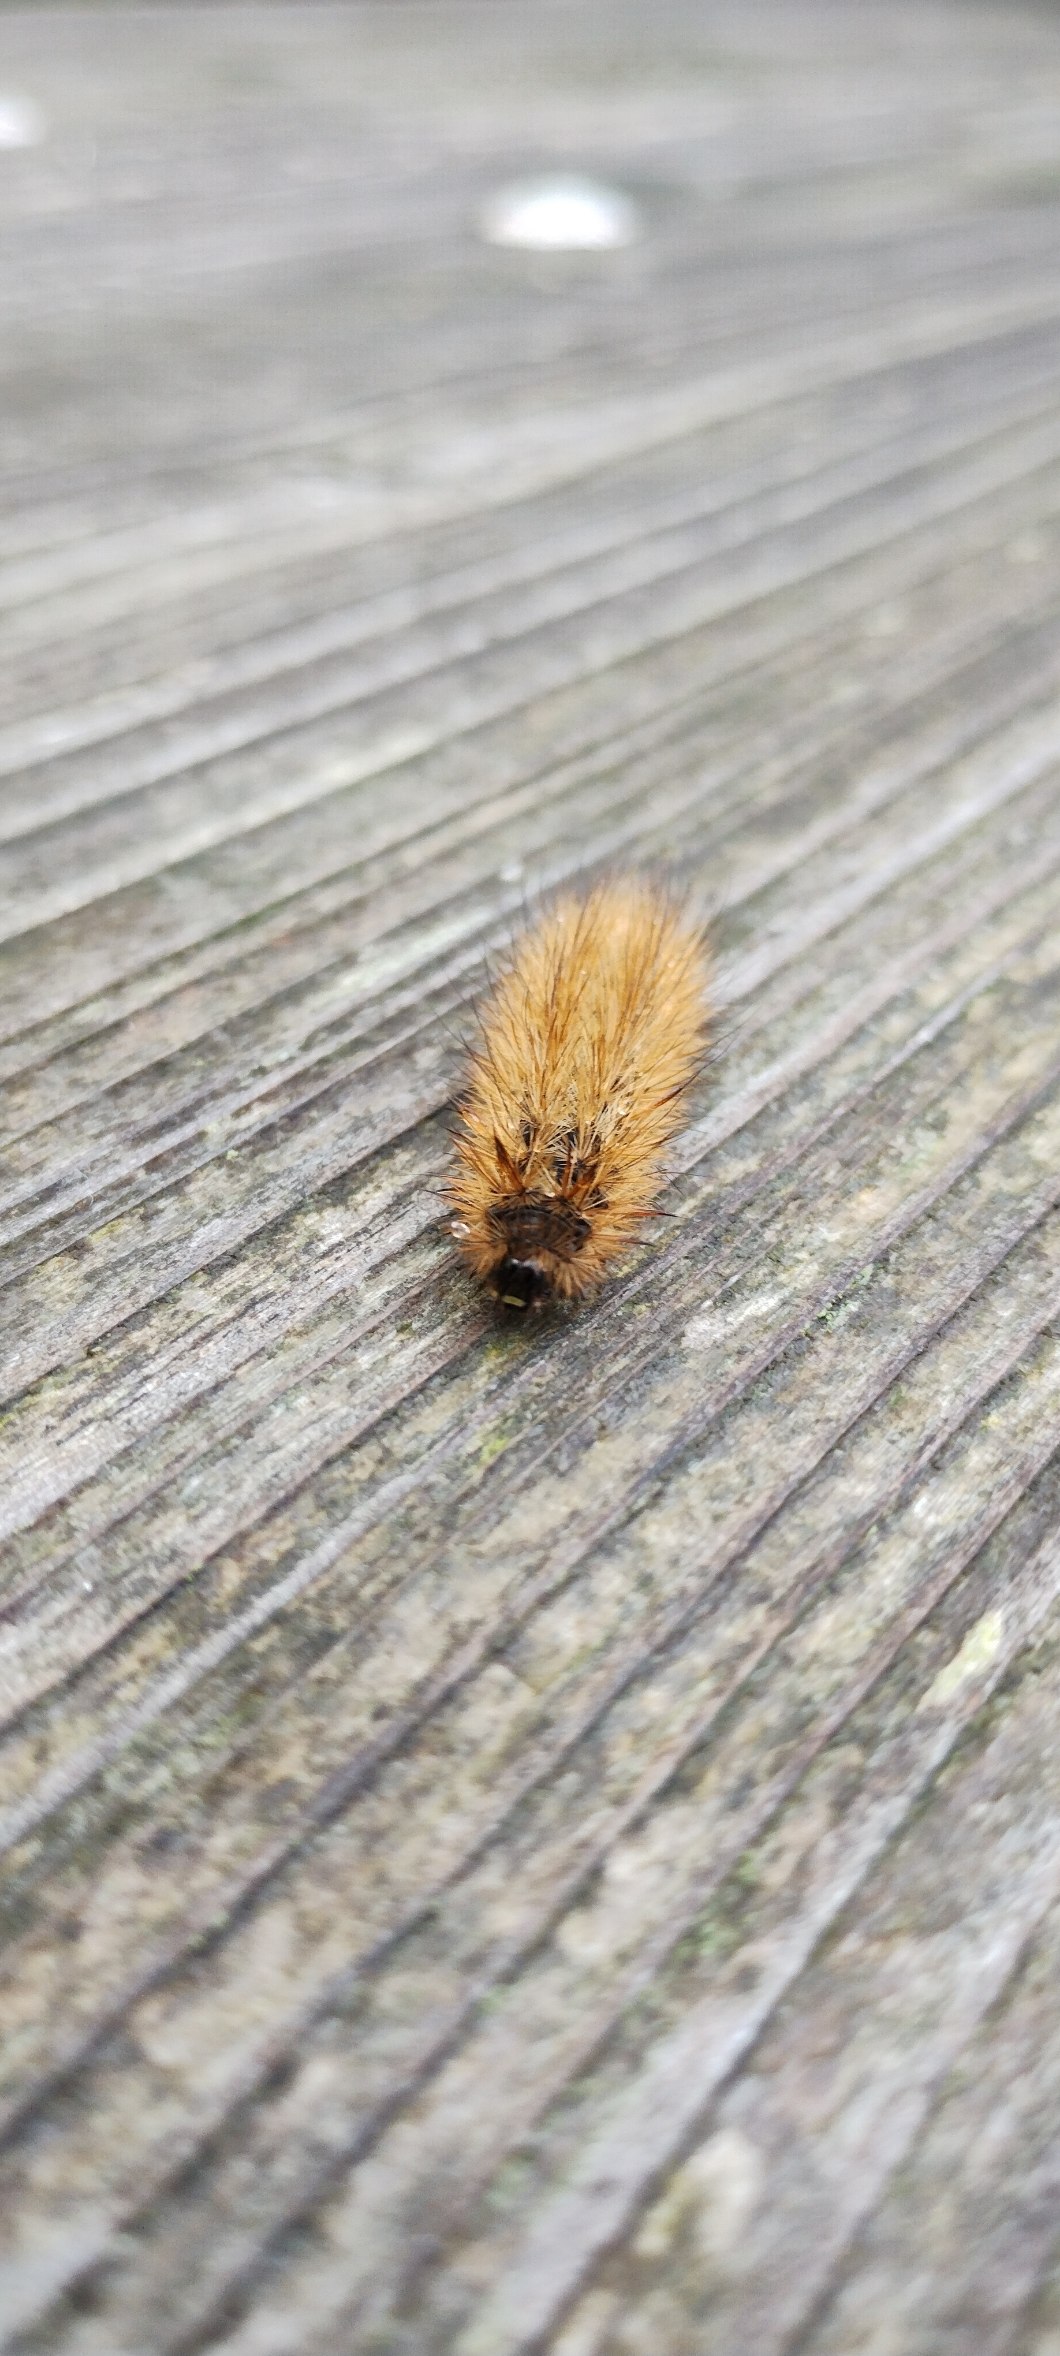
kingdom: Animalia
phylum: Arthropoda
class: Insecta
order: Lepidoptera
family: Erebidae
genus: Phragmatobia
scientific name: Phragmatobia fuliginosa
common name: Kanelbjørn
